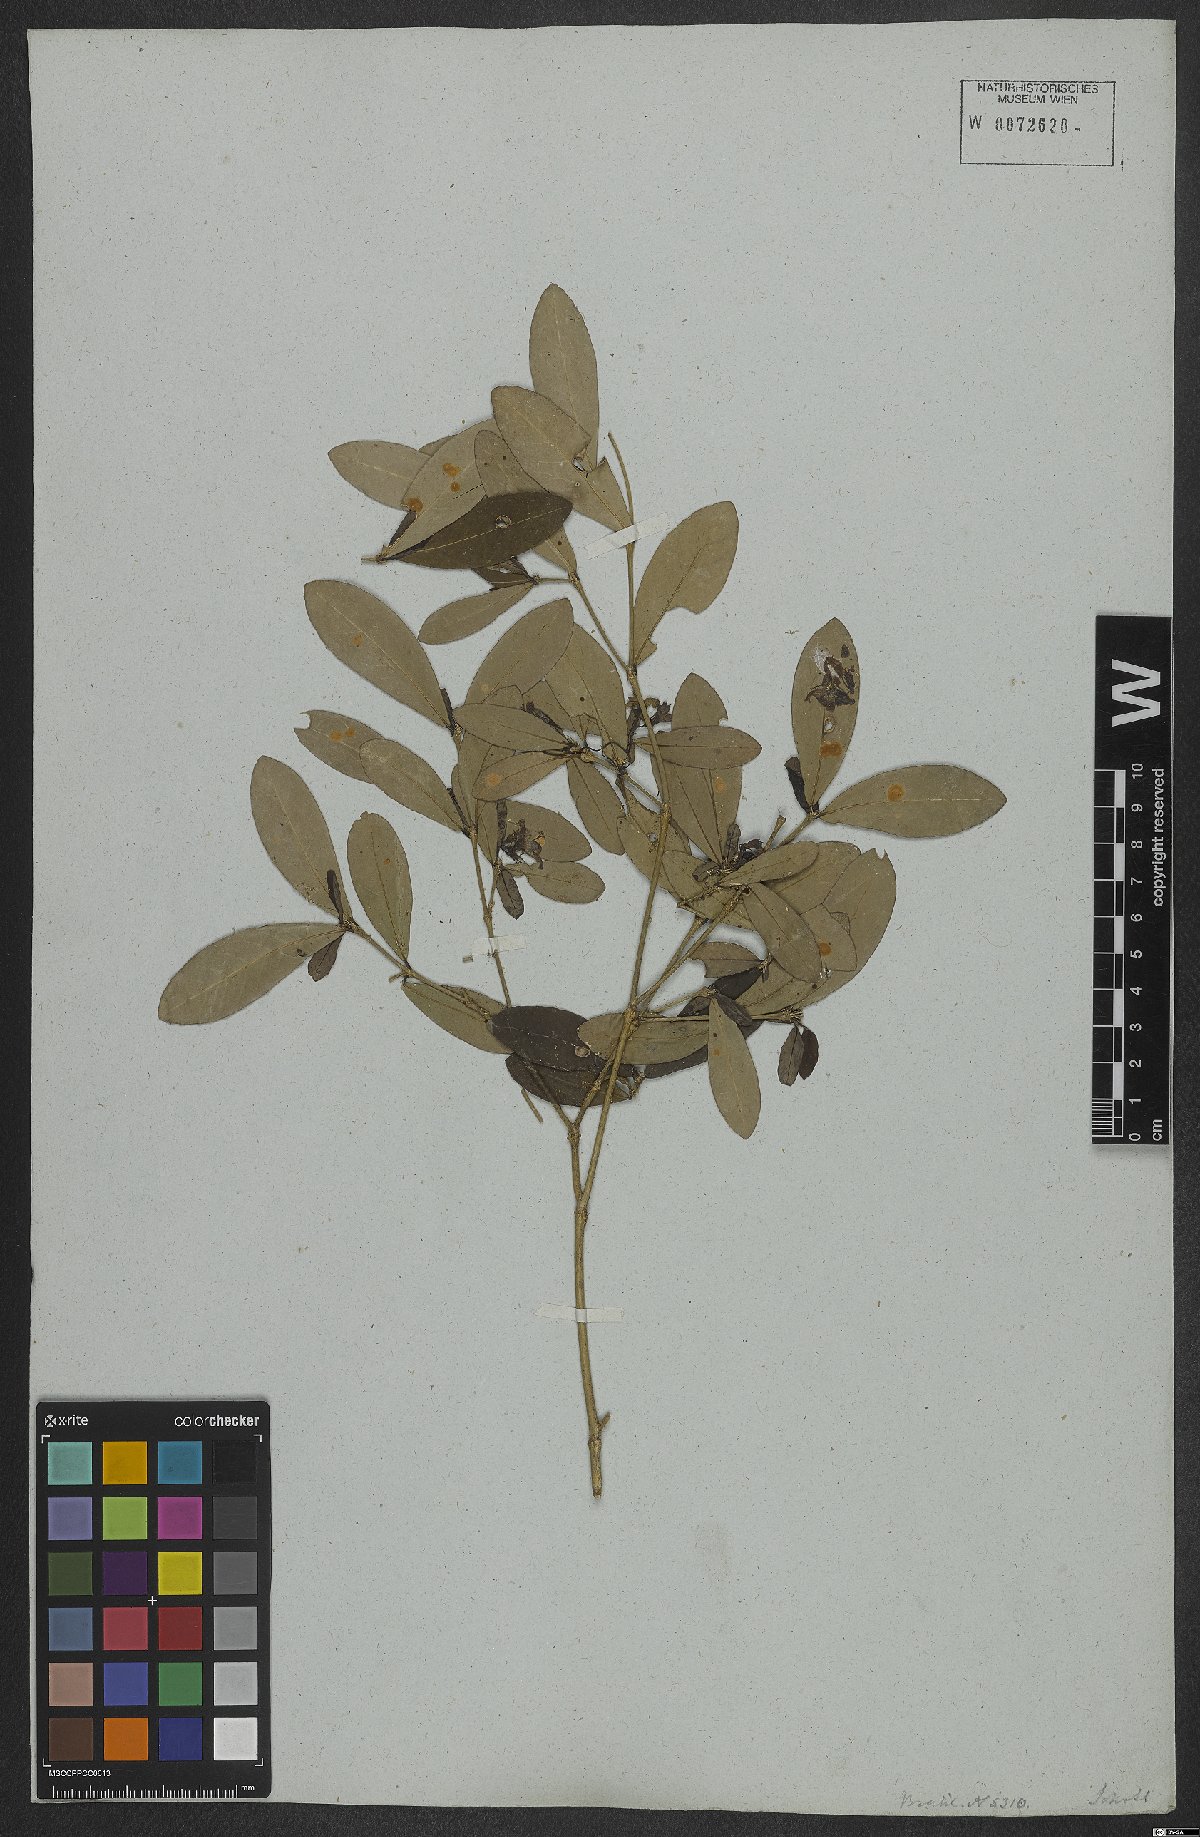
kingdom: Plantae
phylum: Tracheophyta
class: Magnoliopsida
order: Gentianales
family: Rubiaceae
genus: Rudgea
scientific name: Rudgea discolor
